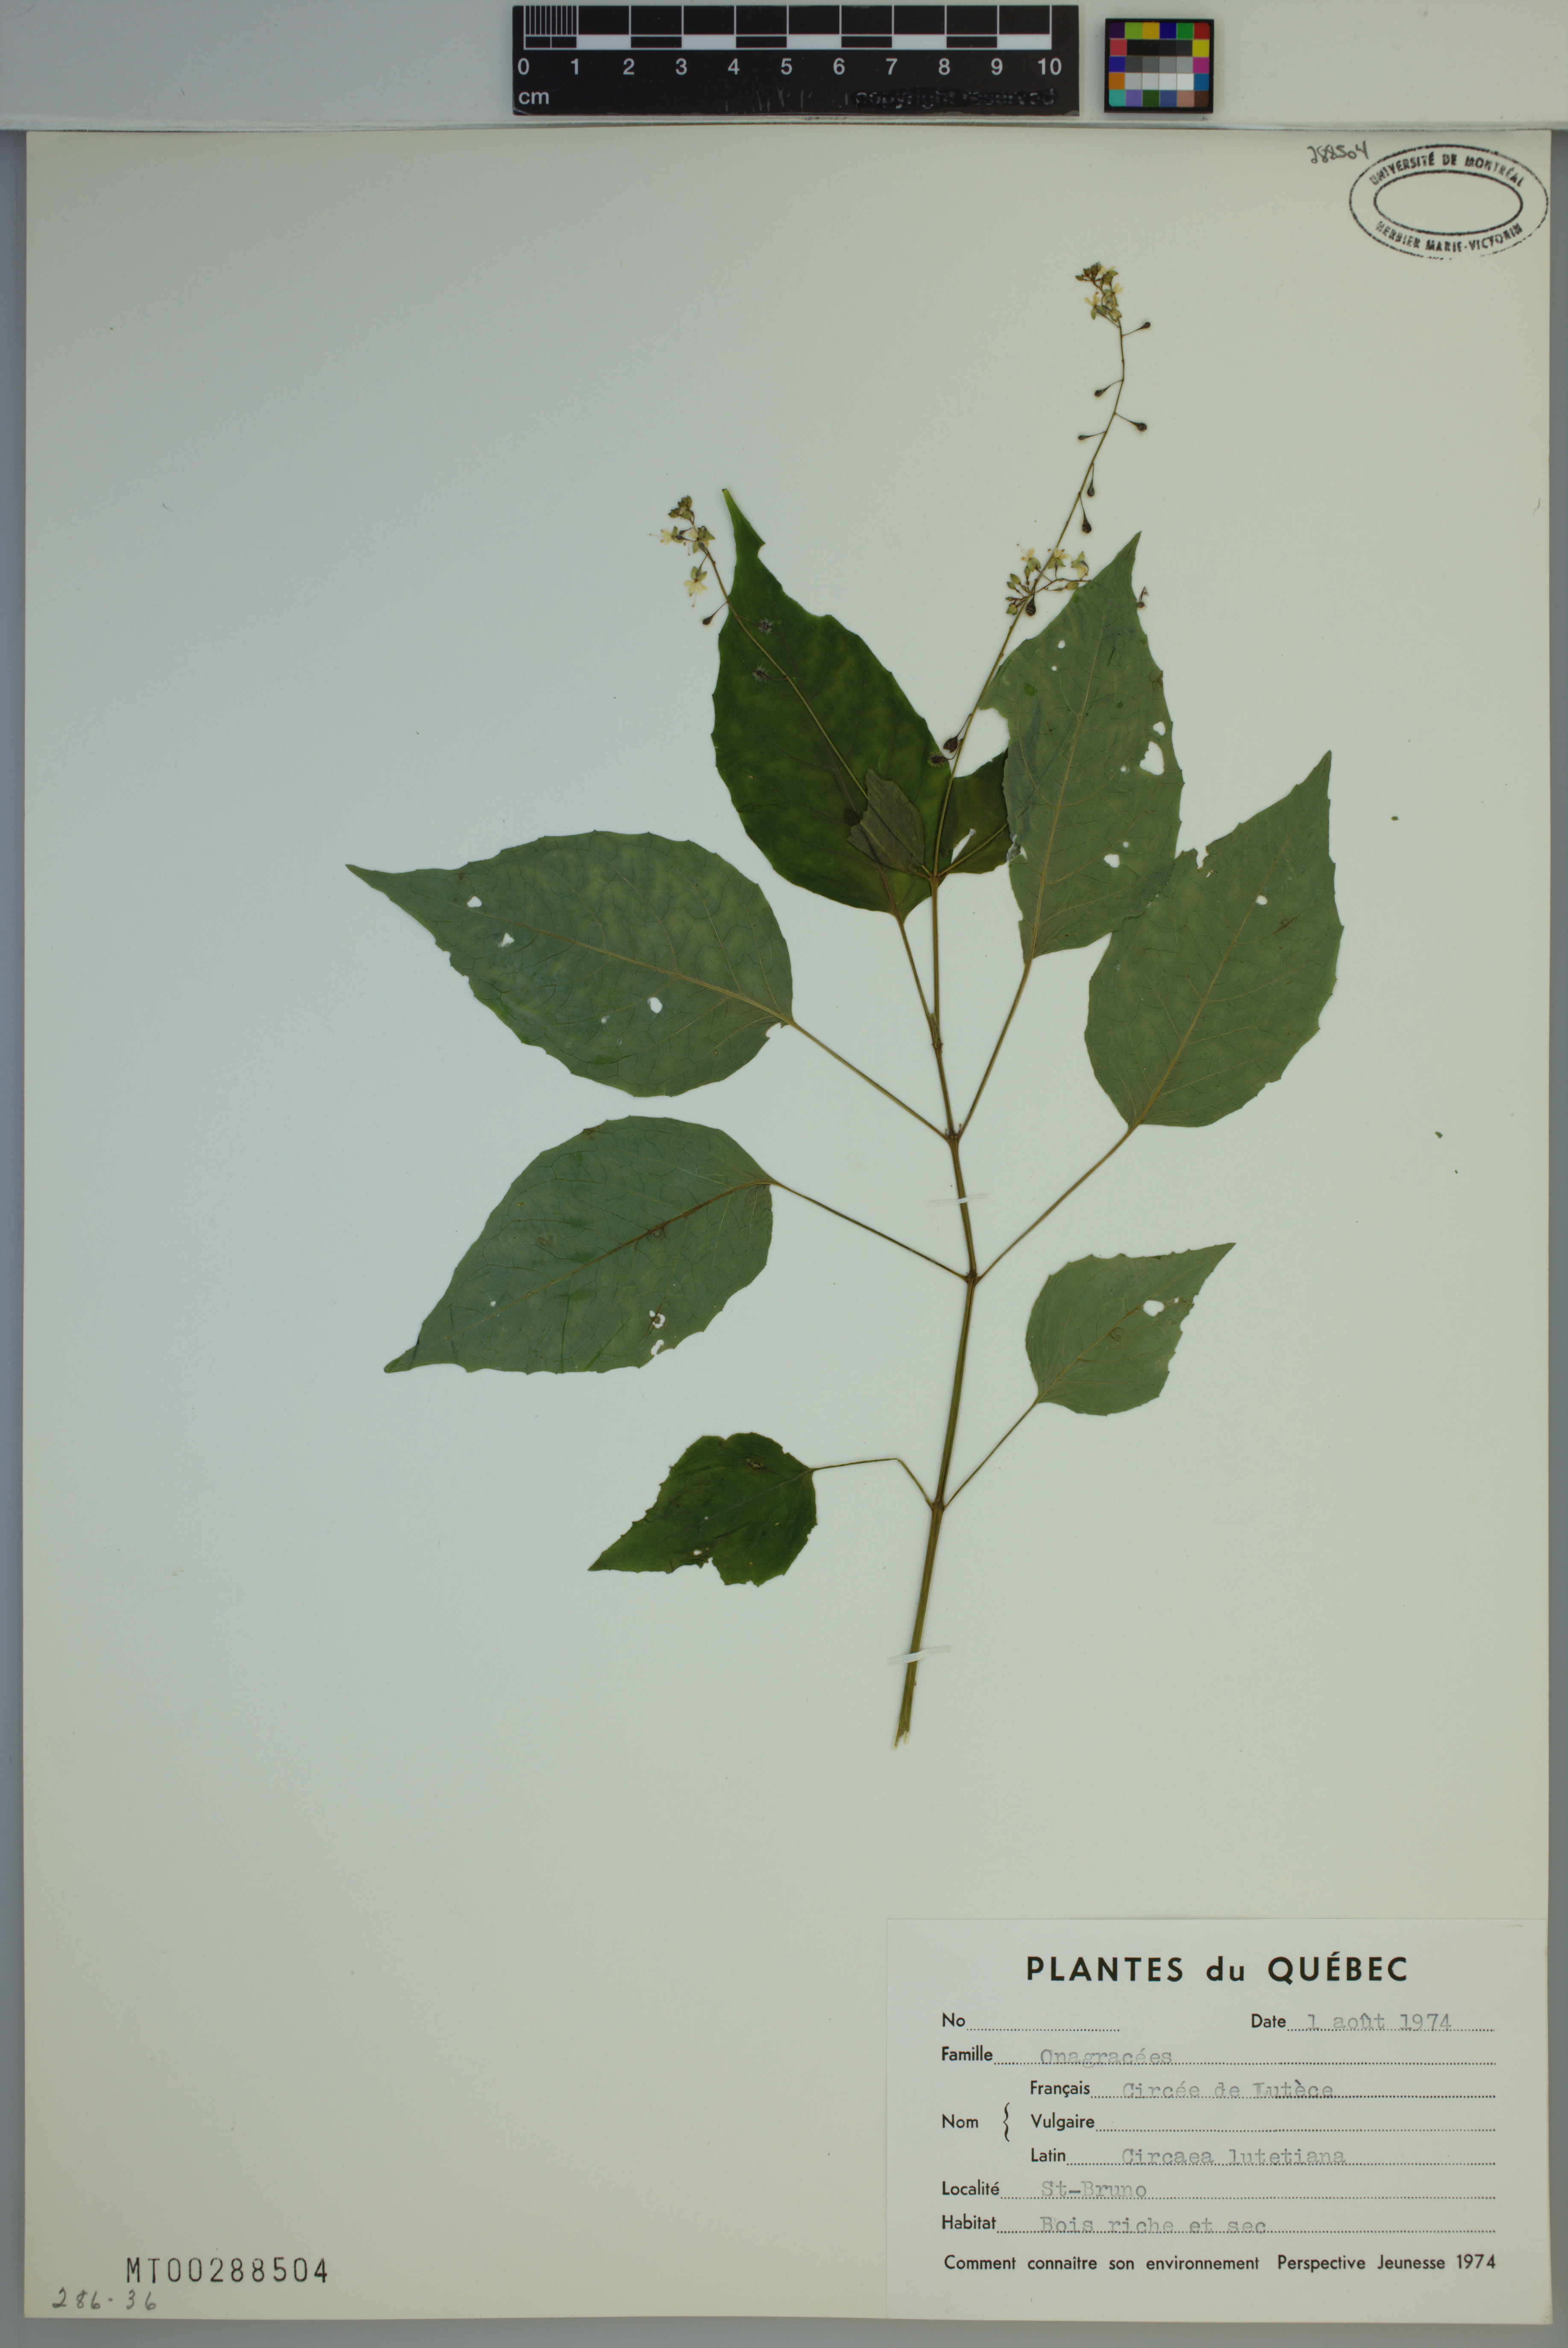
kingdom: Plantae
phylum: Tracheophyta
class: Magnoliopsida
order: Myrtales
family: Onagraceae
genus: Circaea
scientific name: Circaea lutetiana
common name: Enchanter's-nightshade
